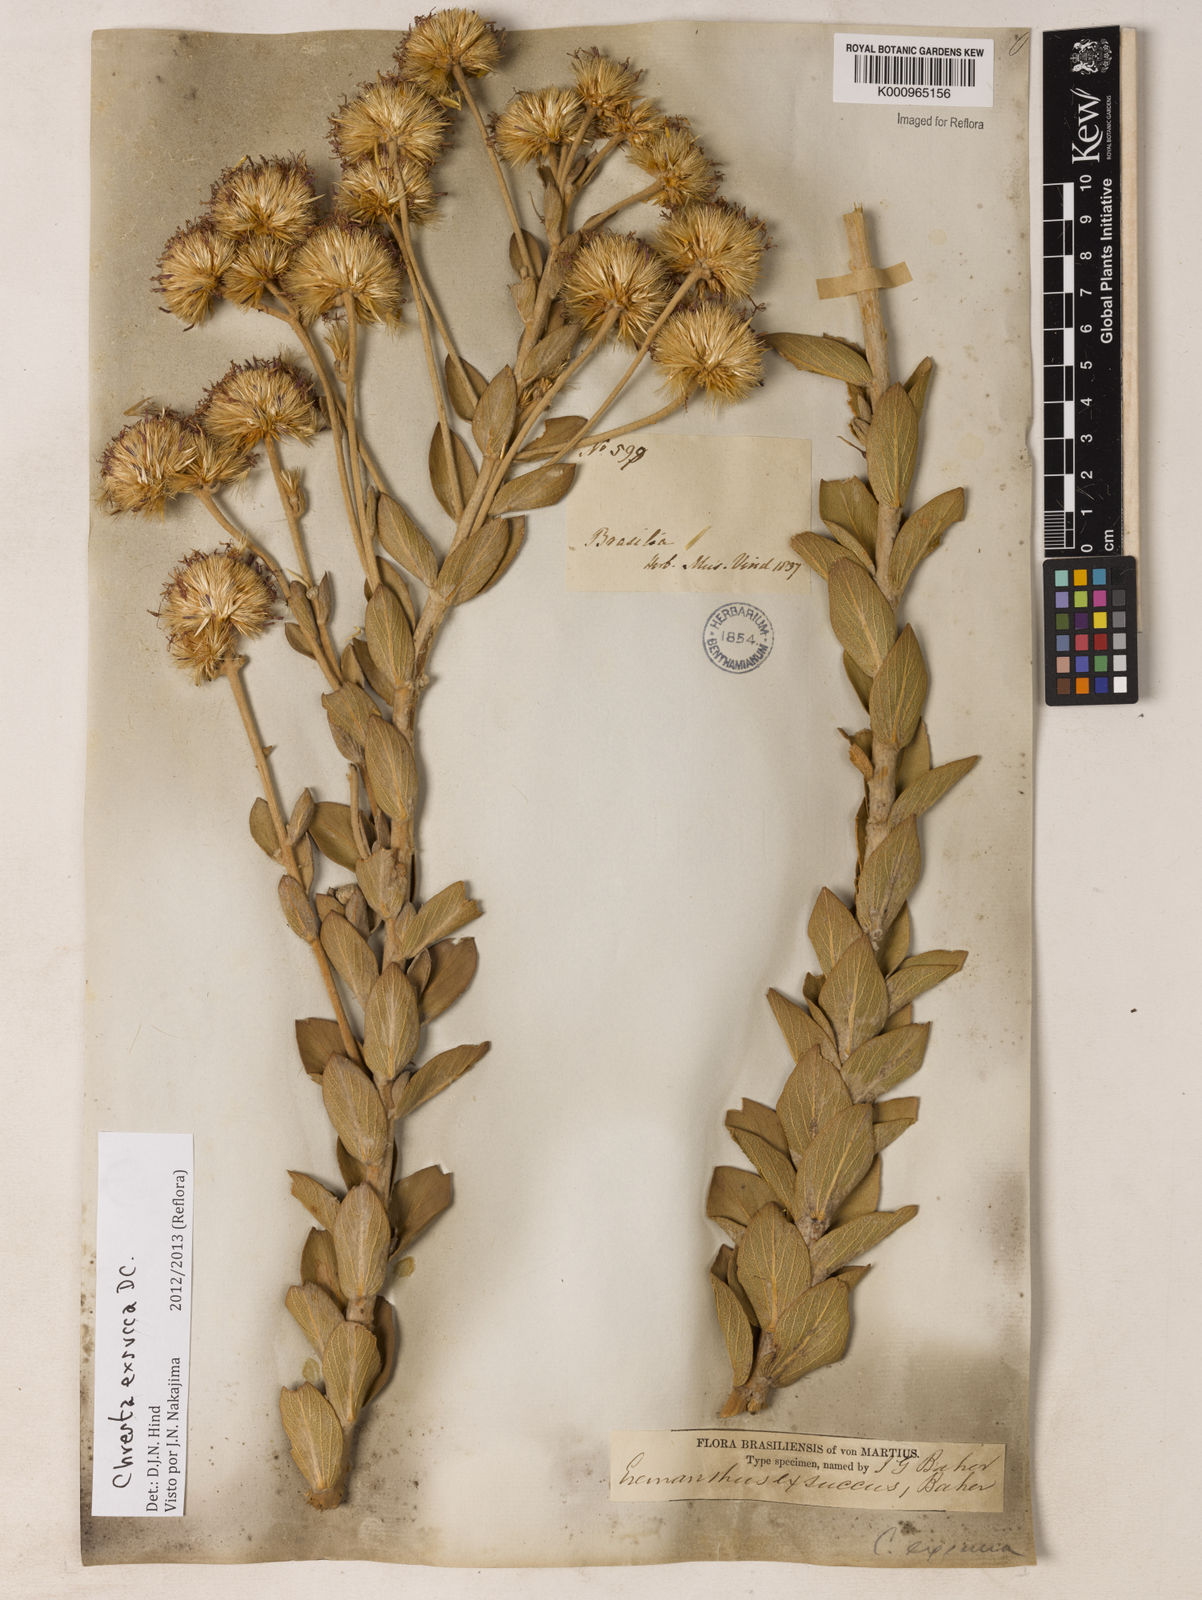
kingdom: Plantae
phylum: Tracheophyta
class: Magnoliopsida
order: Asterales
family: Asteraceae
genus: Chresta
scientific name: Chresta exsucca
